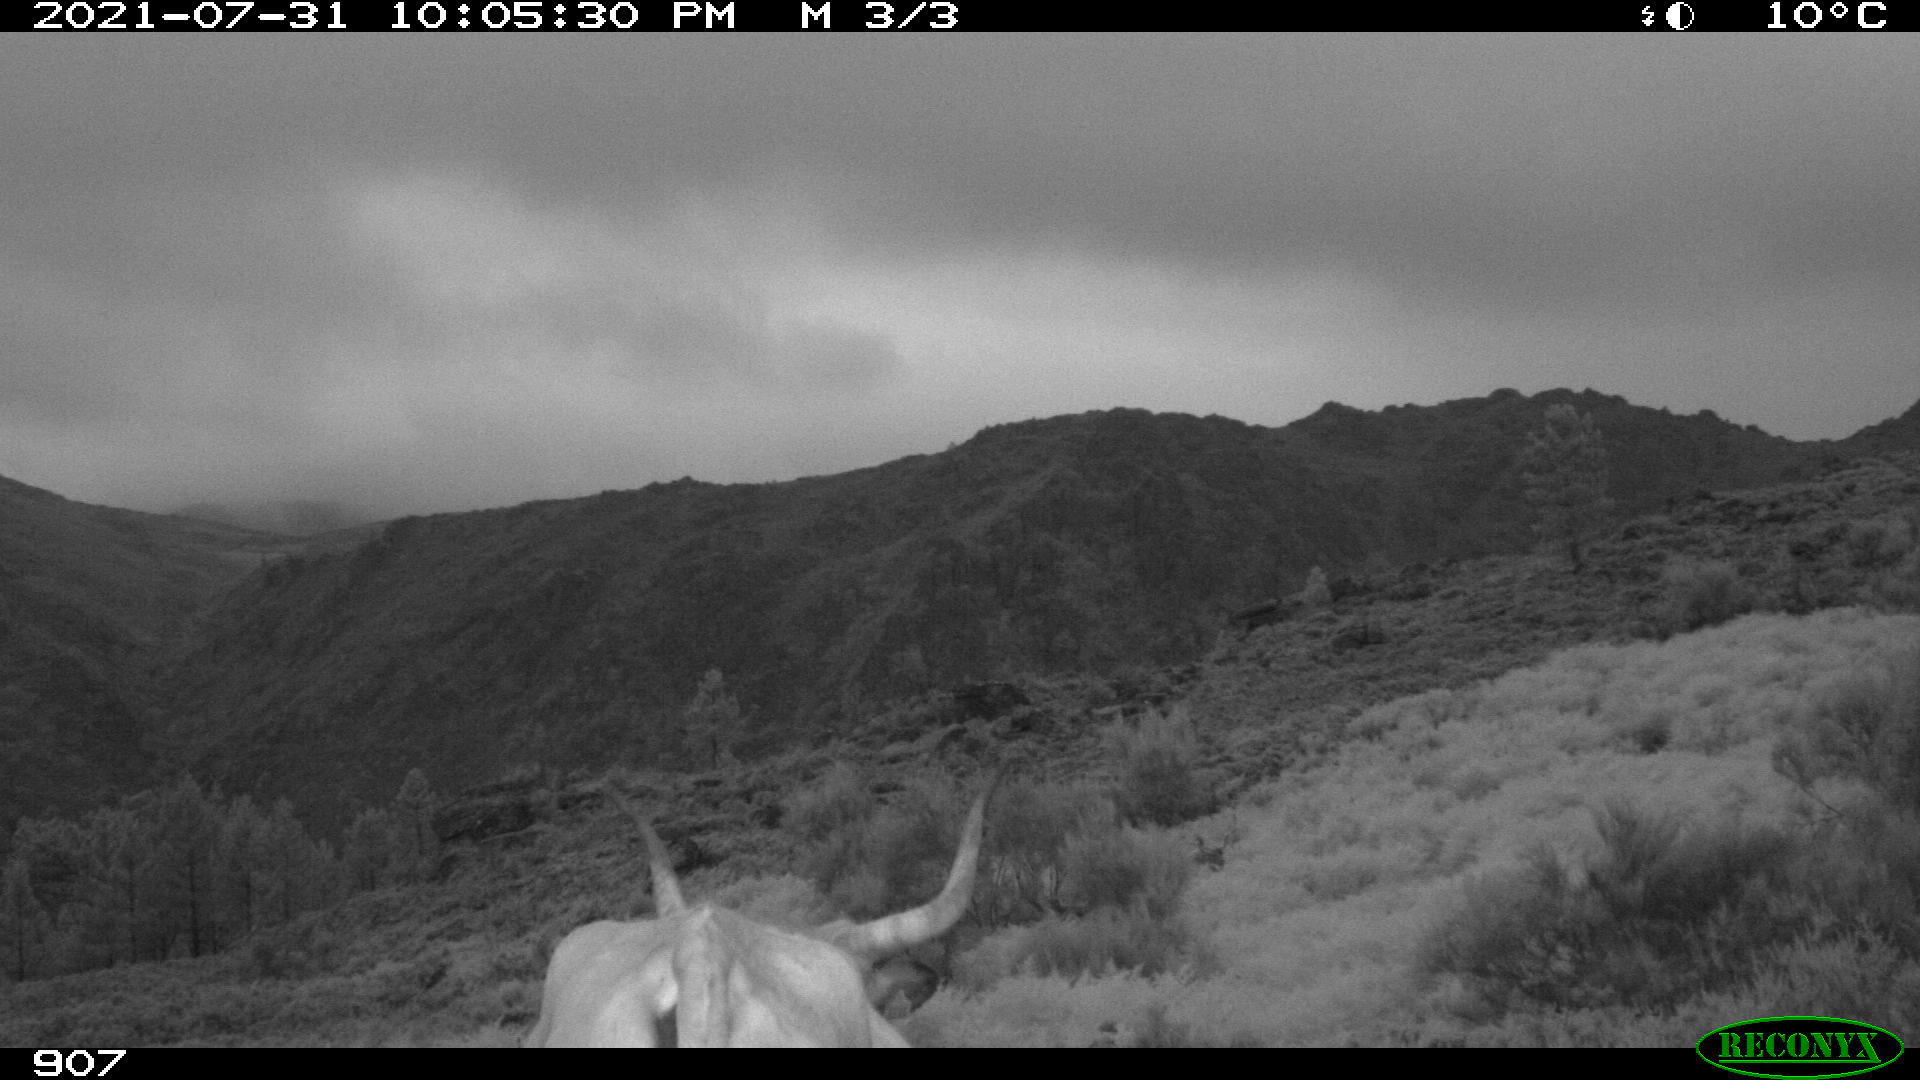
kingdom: Animalia
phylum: Chordata
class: Mammalia
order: Artiodactyla
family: Bovidae
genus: Bos
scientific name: Bos taurus
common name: Domesticated cattle
